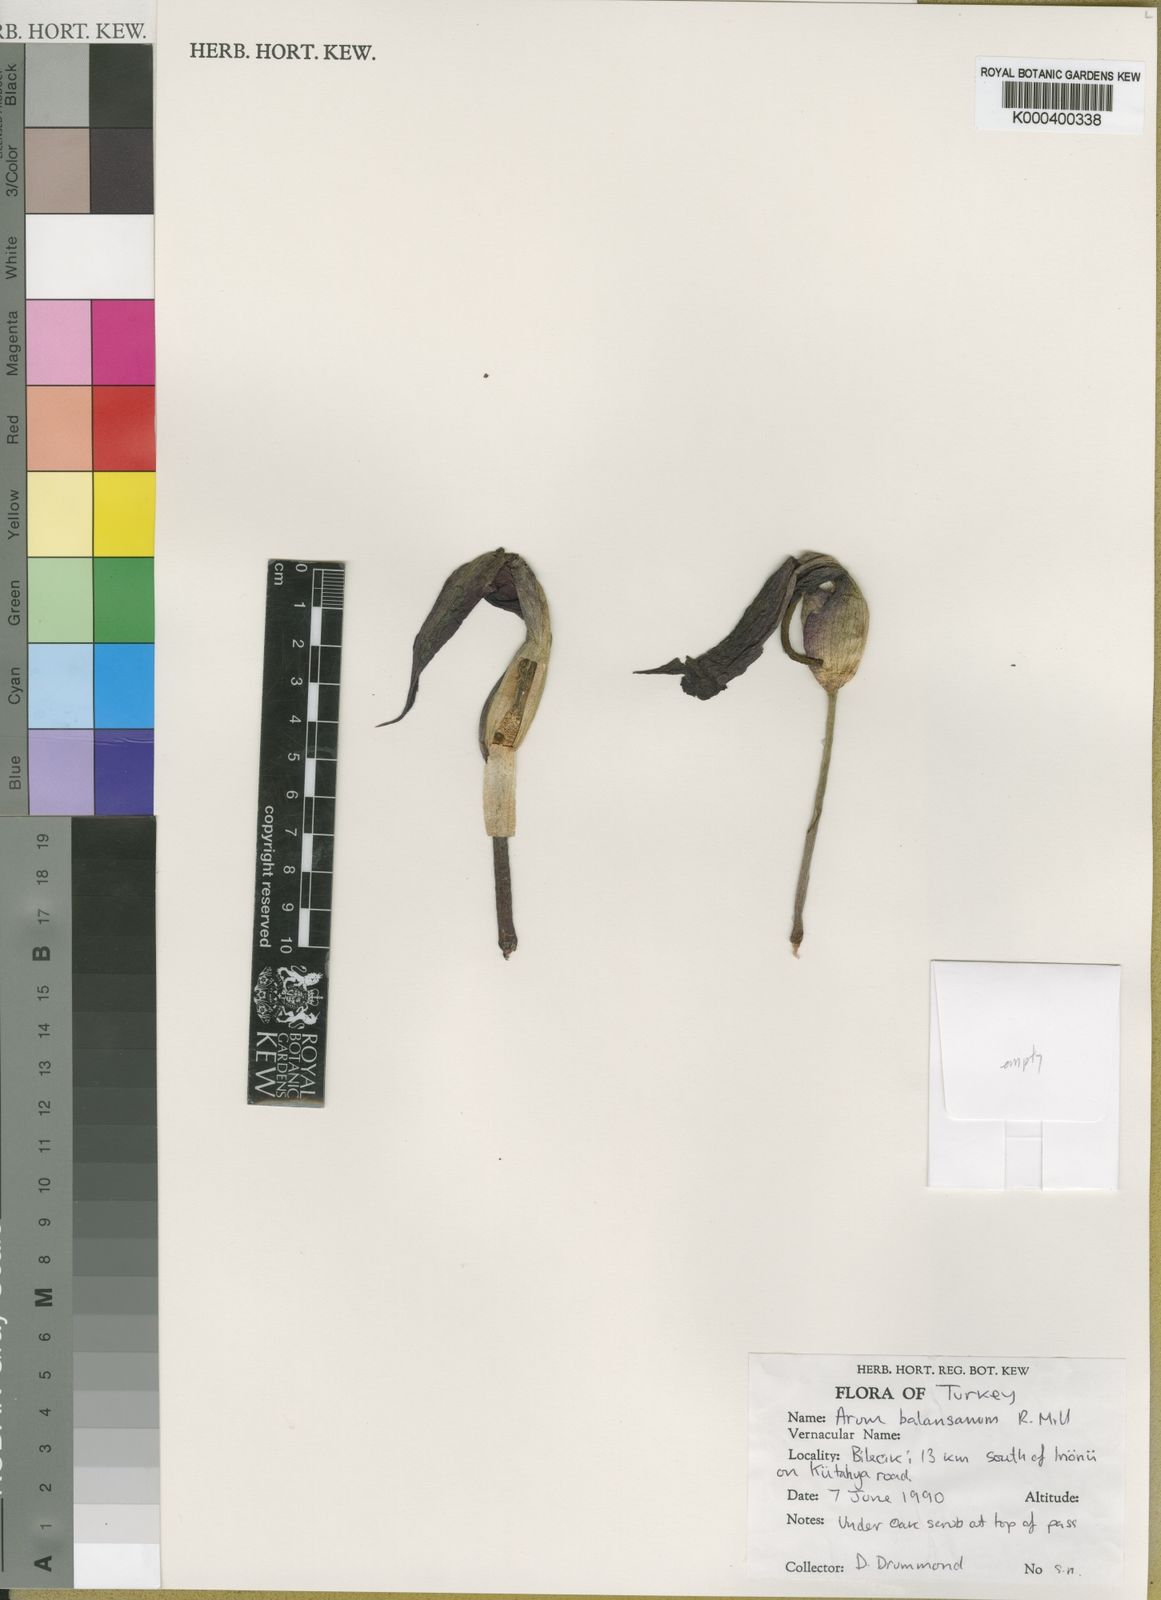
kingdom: Plantae
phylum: Tracheophyta
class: Liliopsida
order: Alismatales
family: Araceae
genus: Arum
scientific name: Arum orientale
